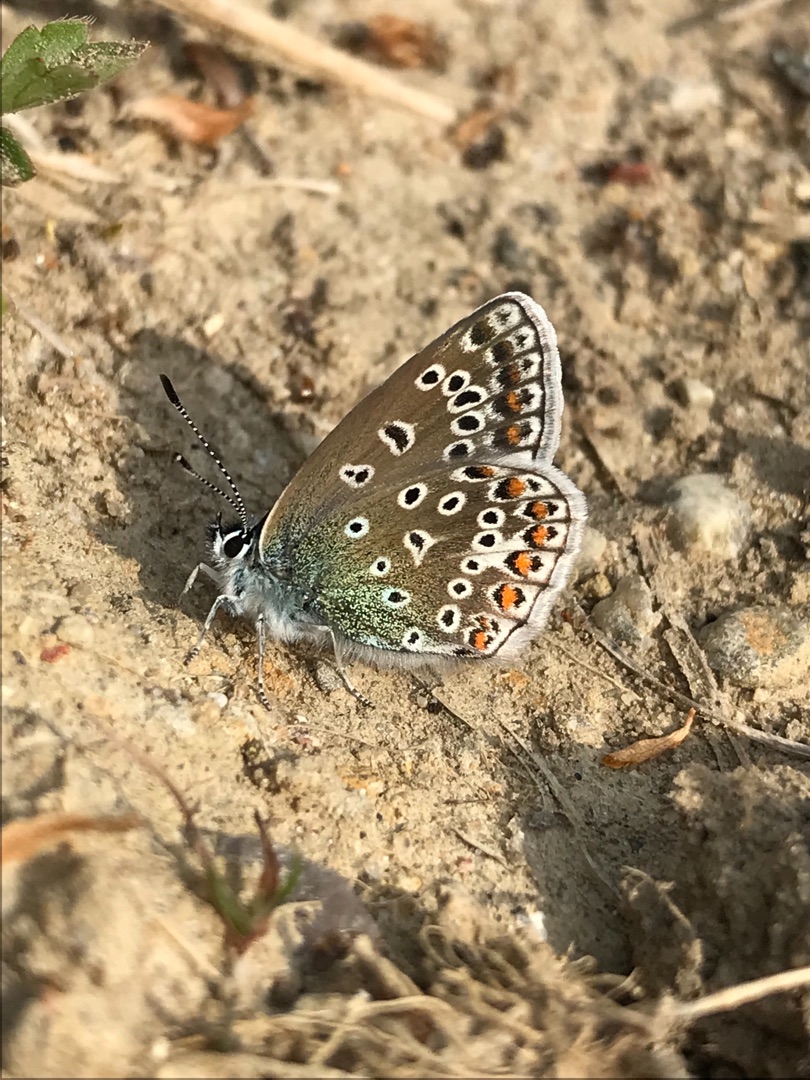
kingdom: Animalia
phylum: Arthropoda
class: Insecta
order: Lepidoptera
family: Lycaenidae
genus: Polyommatus
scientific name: Polyommatus icarus
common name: Almindelig blåfugl
